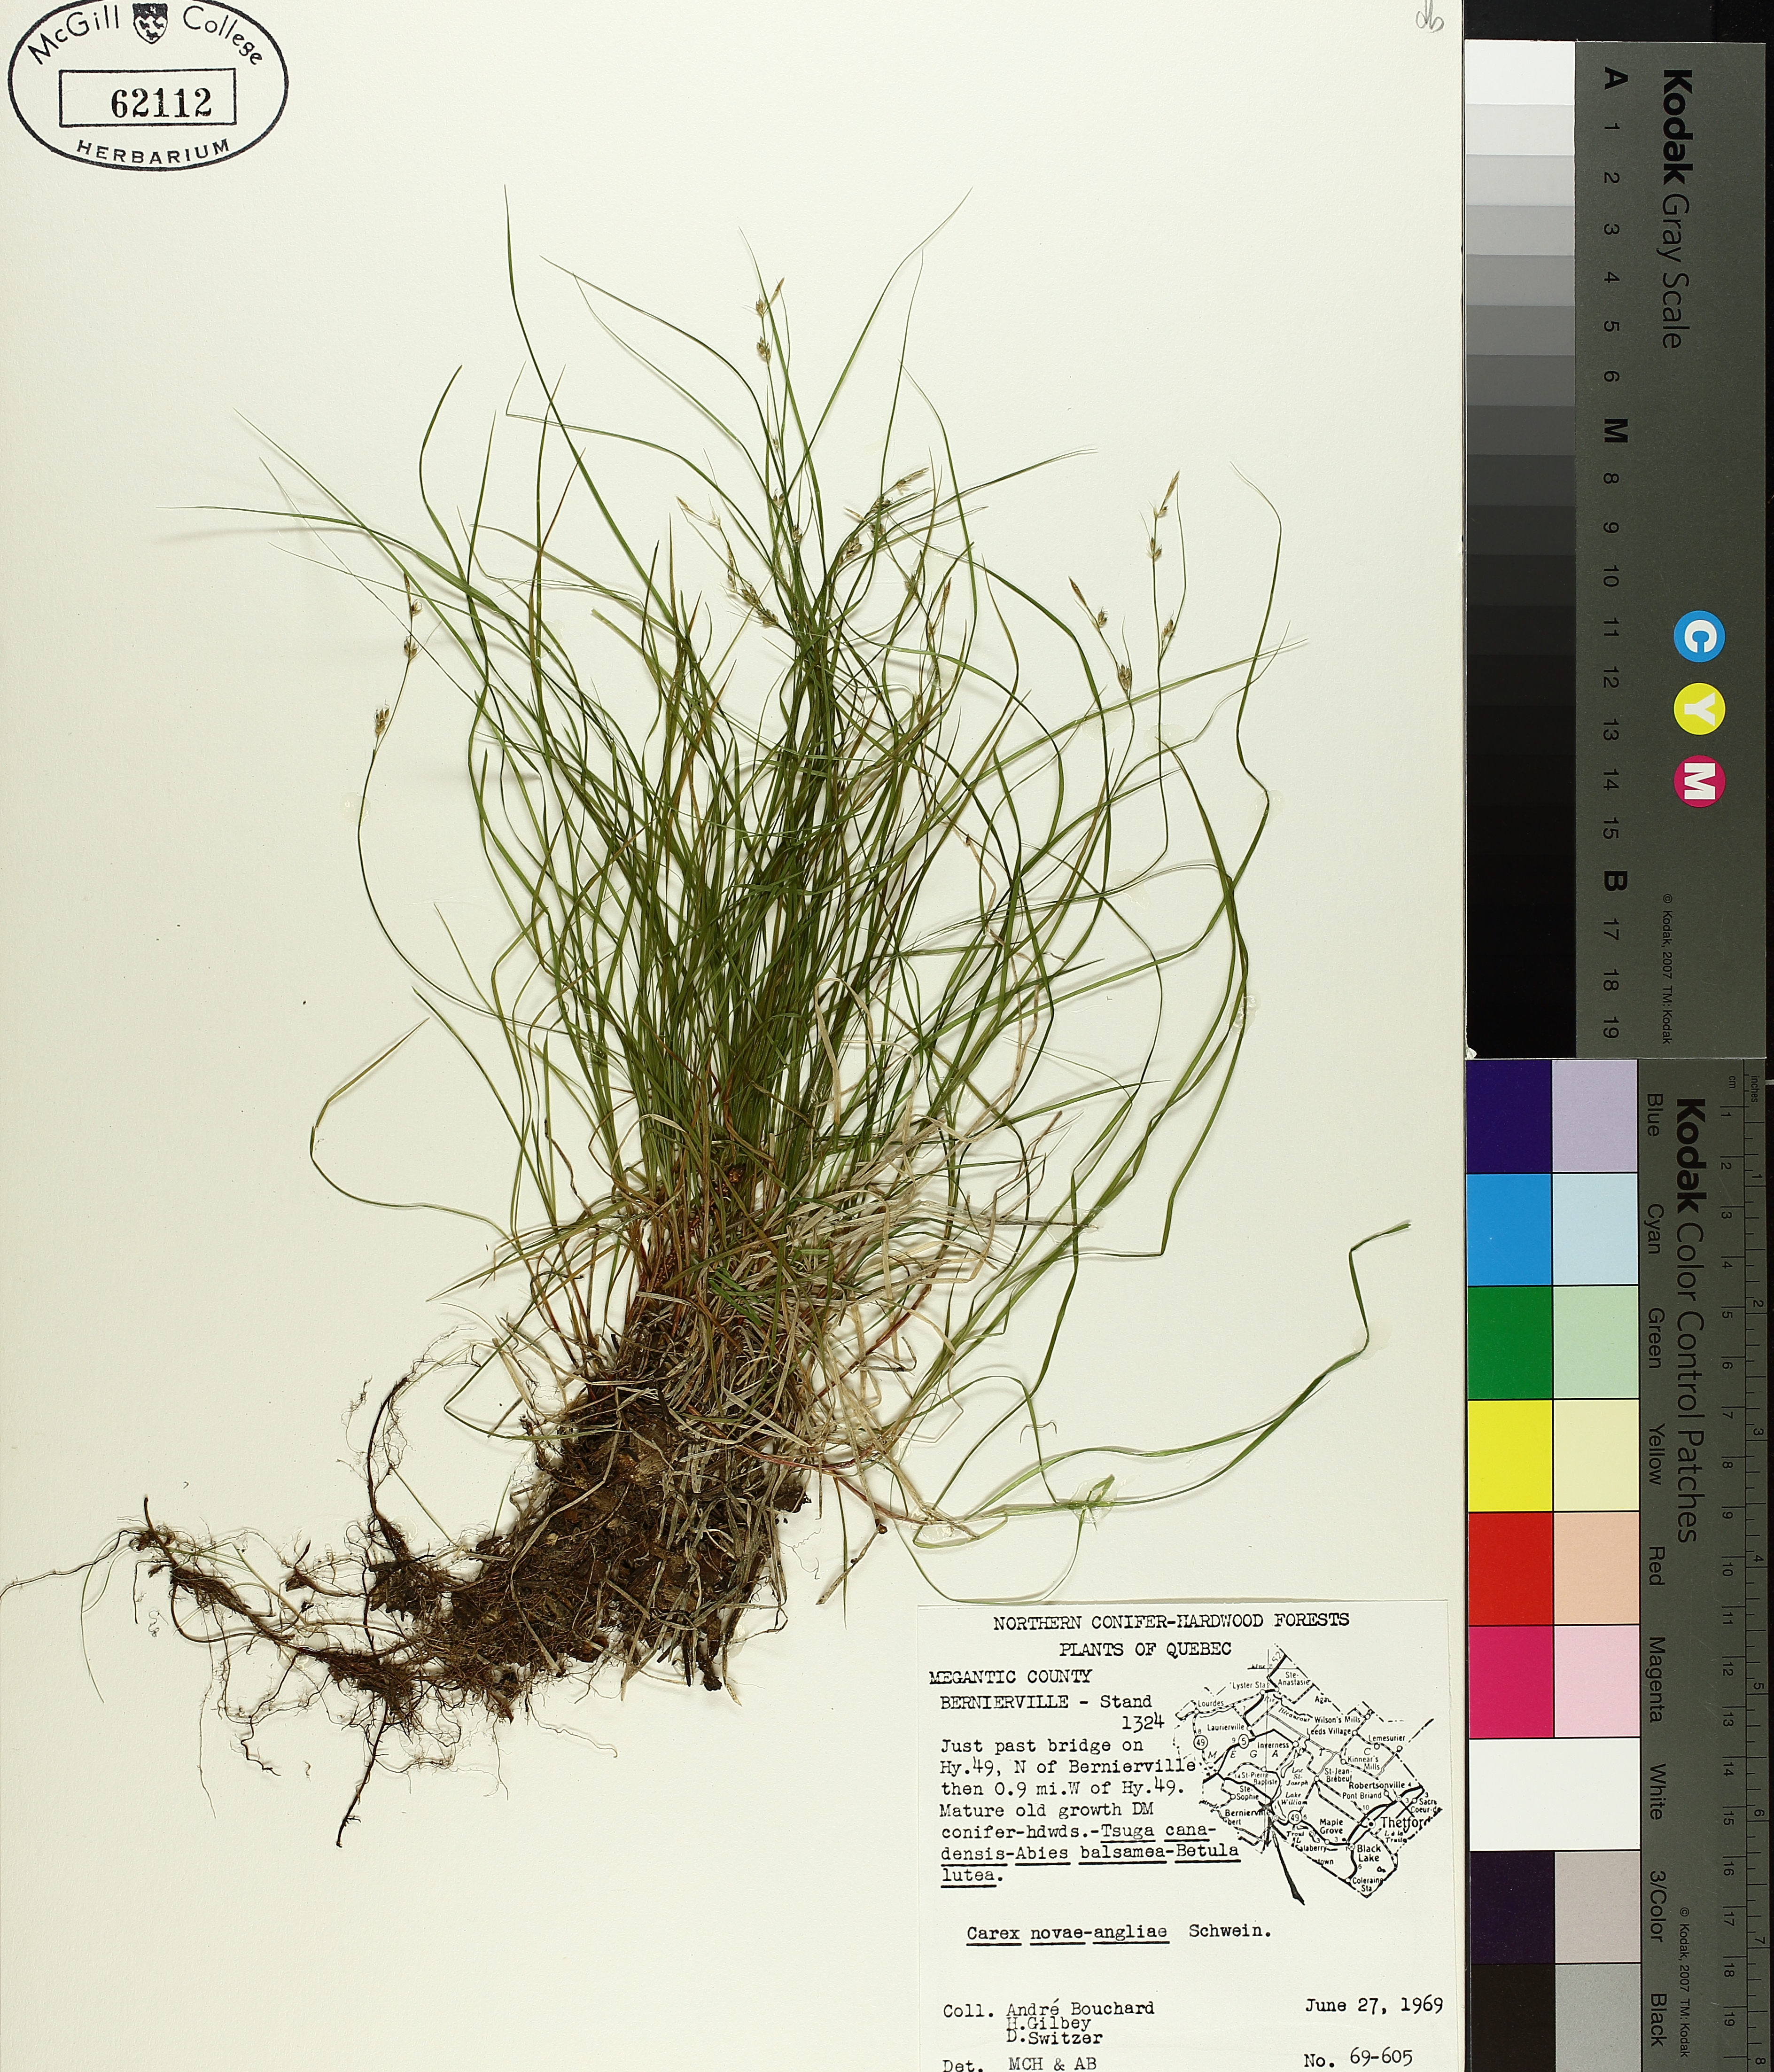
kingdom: Plantae
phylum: Tracheophyta
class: Liliopsida
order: Poales
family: Cyperaceae
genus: Carex
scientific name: Carex novae-angliae
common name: New england sedge
